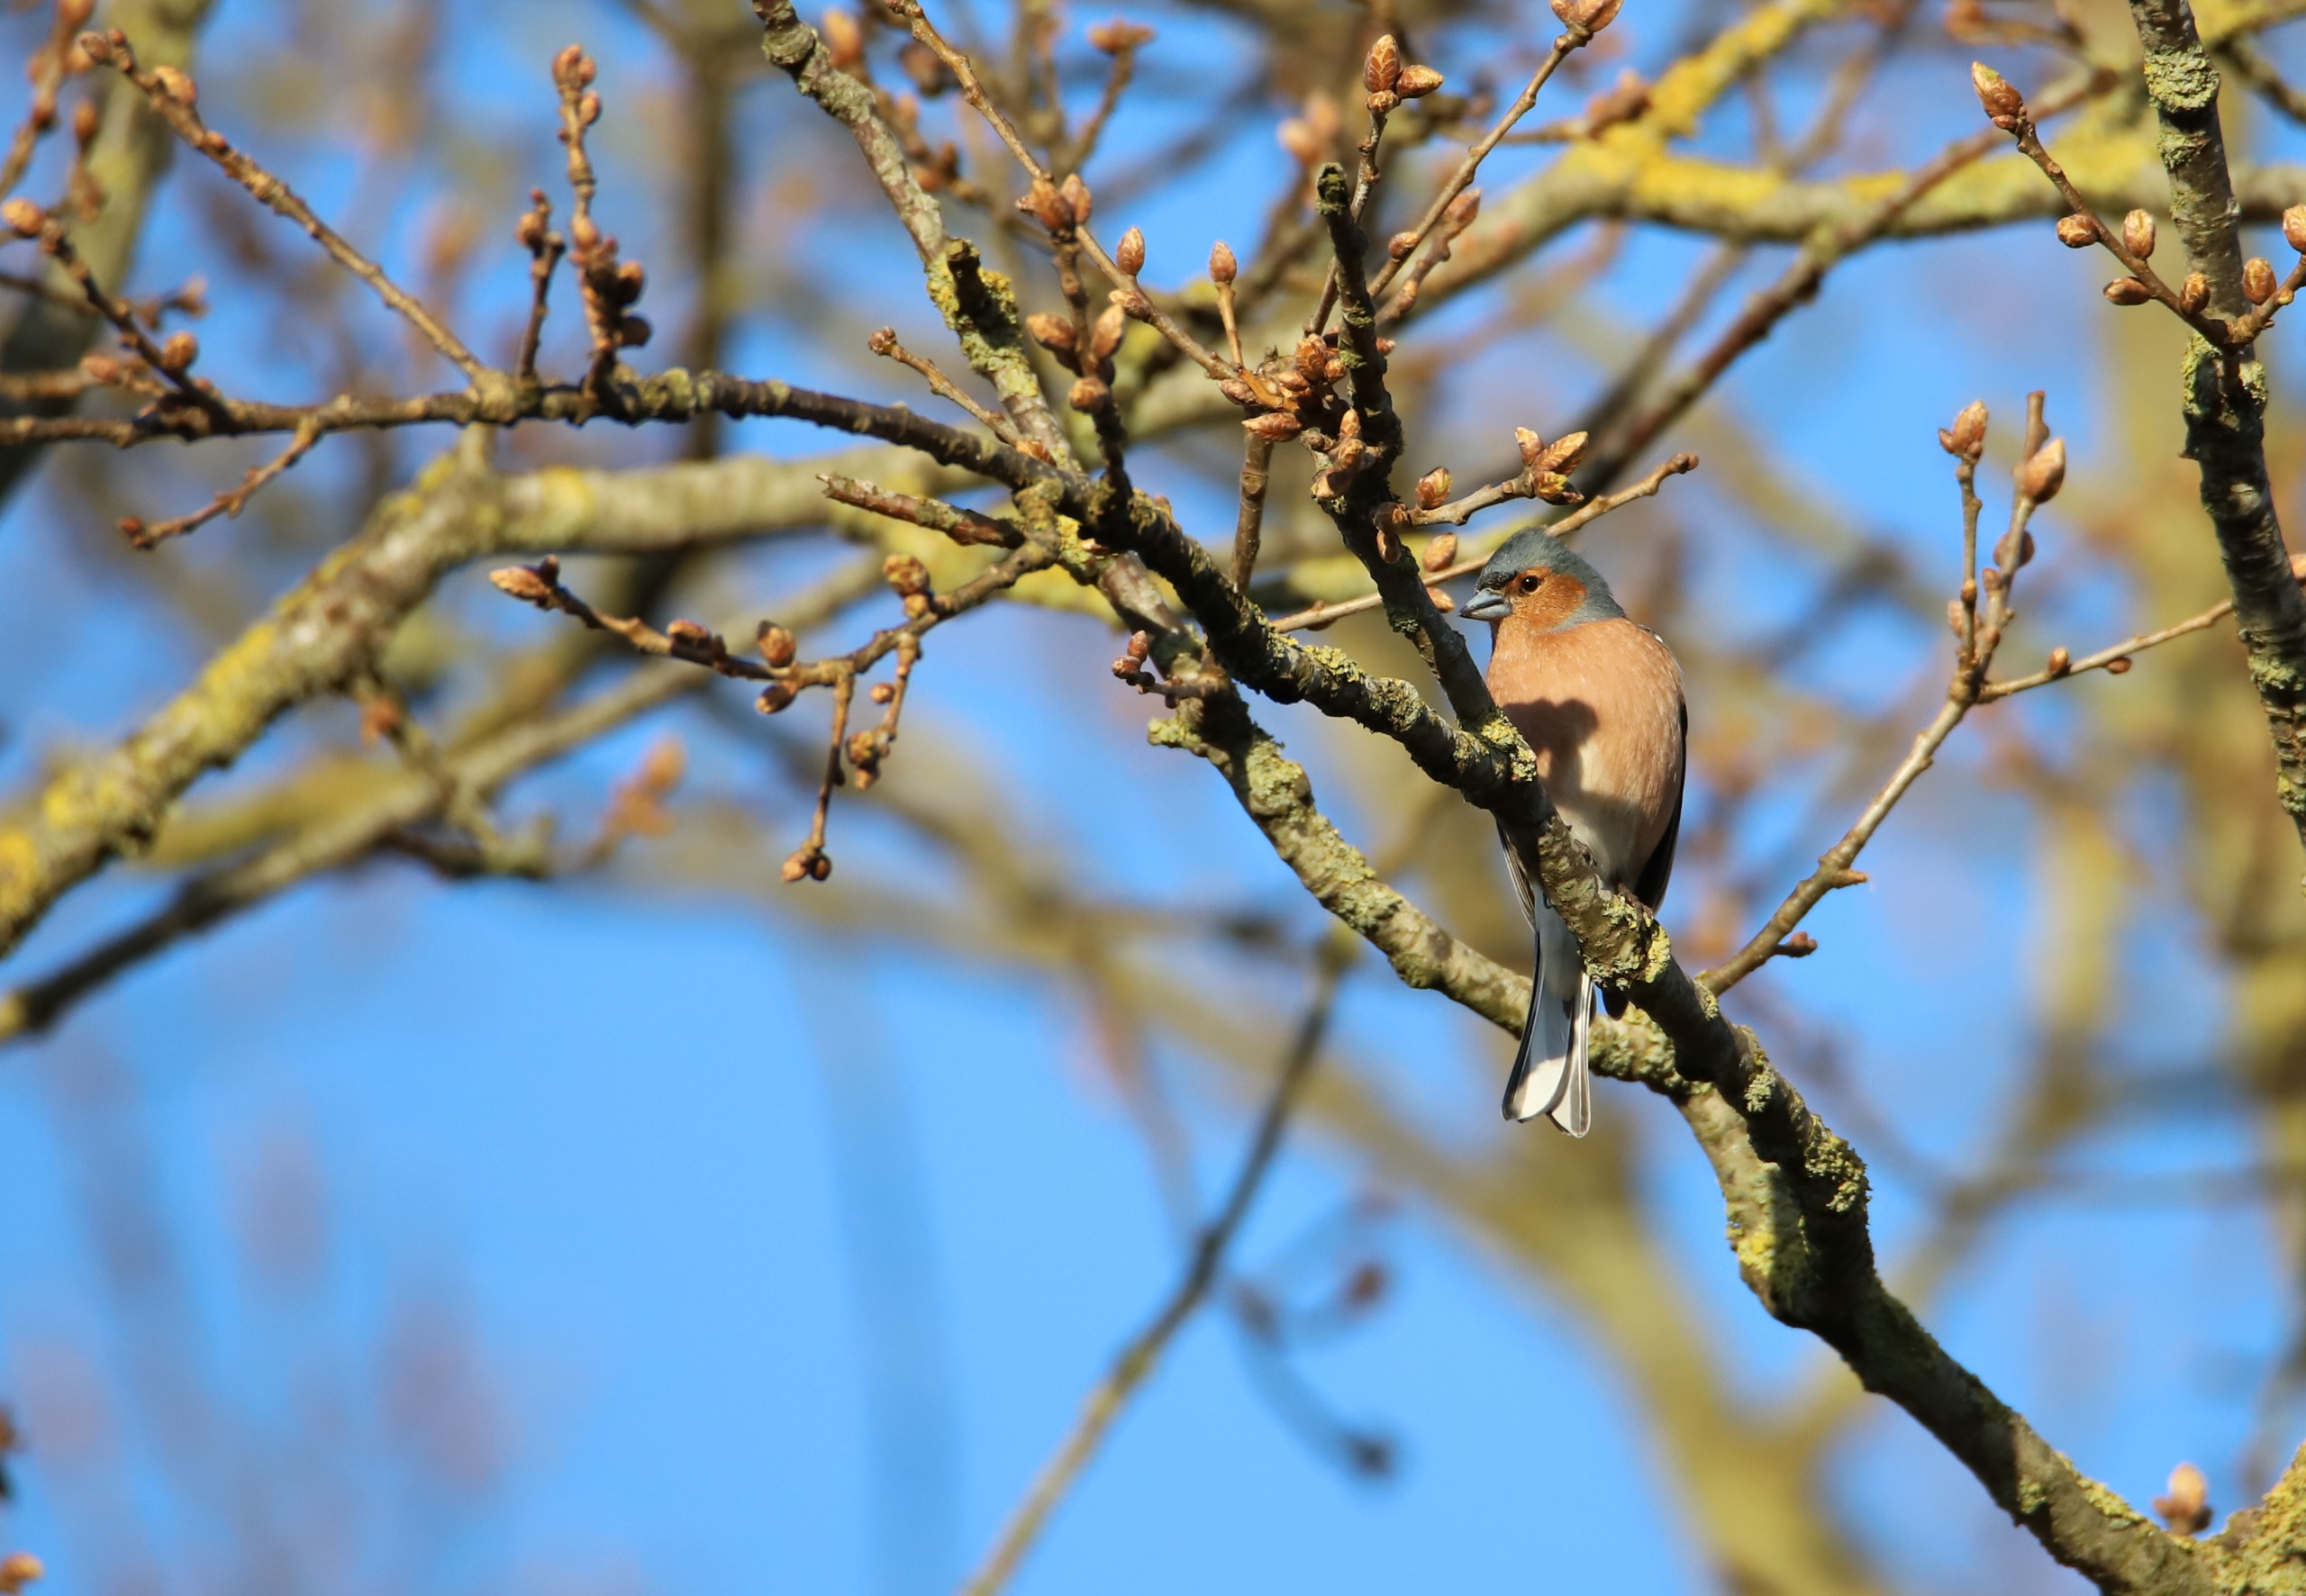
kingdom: Animalia
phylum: Chordata
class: Aves
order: Passeriformes
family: Fringillidae
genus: Fringilla
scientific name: Fringilla coelebs
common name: Bogfinke
